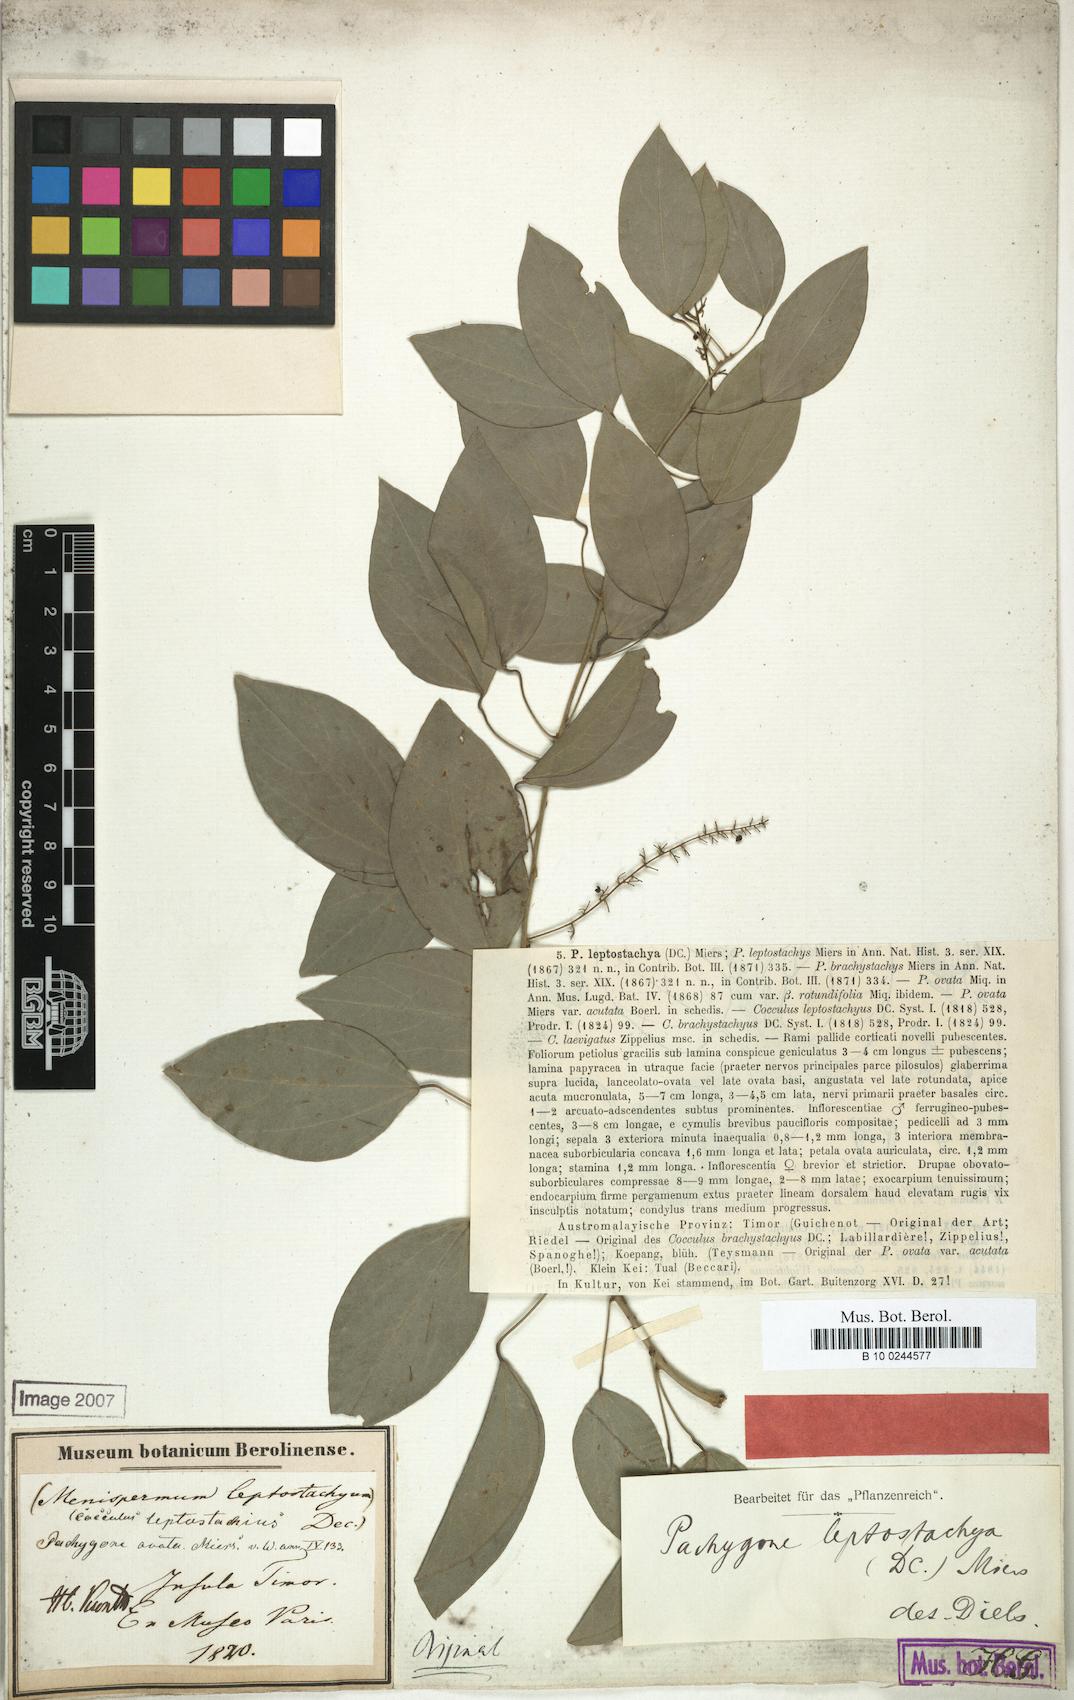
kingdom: Plantae
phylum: Tracheophyta
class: Magnoliopsida
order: Ranunculales
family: Menispermaceae
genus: Pachygone
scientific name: Pachygone ovata
